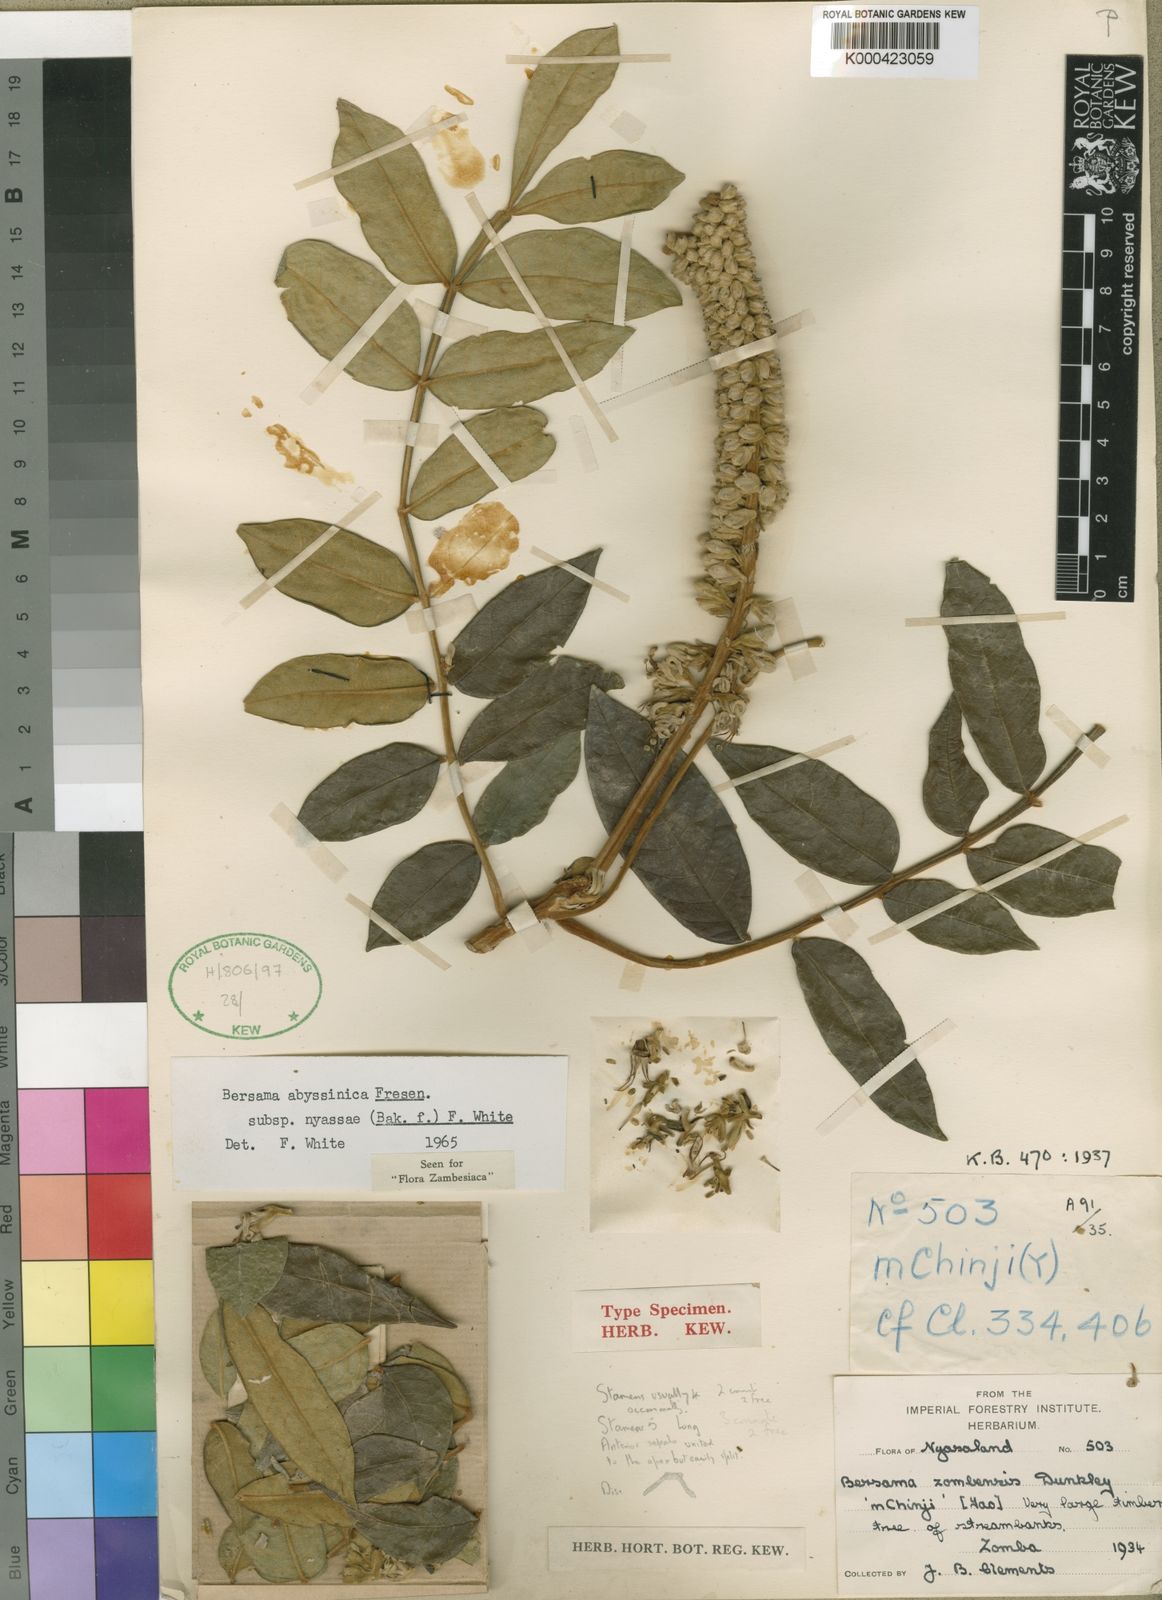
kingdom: Plantae
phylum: Tracheophyta
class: Magnoliopsida
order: Geraniales
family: Melianthaceae
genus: Bersama
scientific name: Bersama abyssinica
